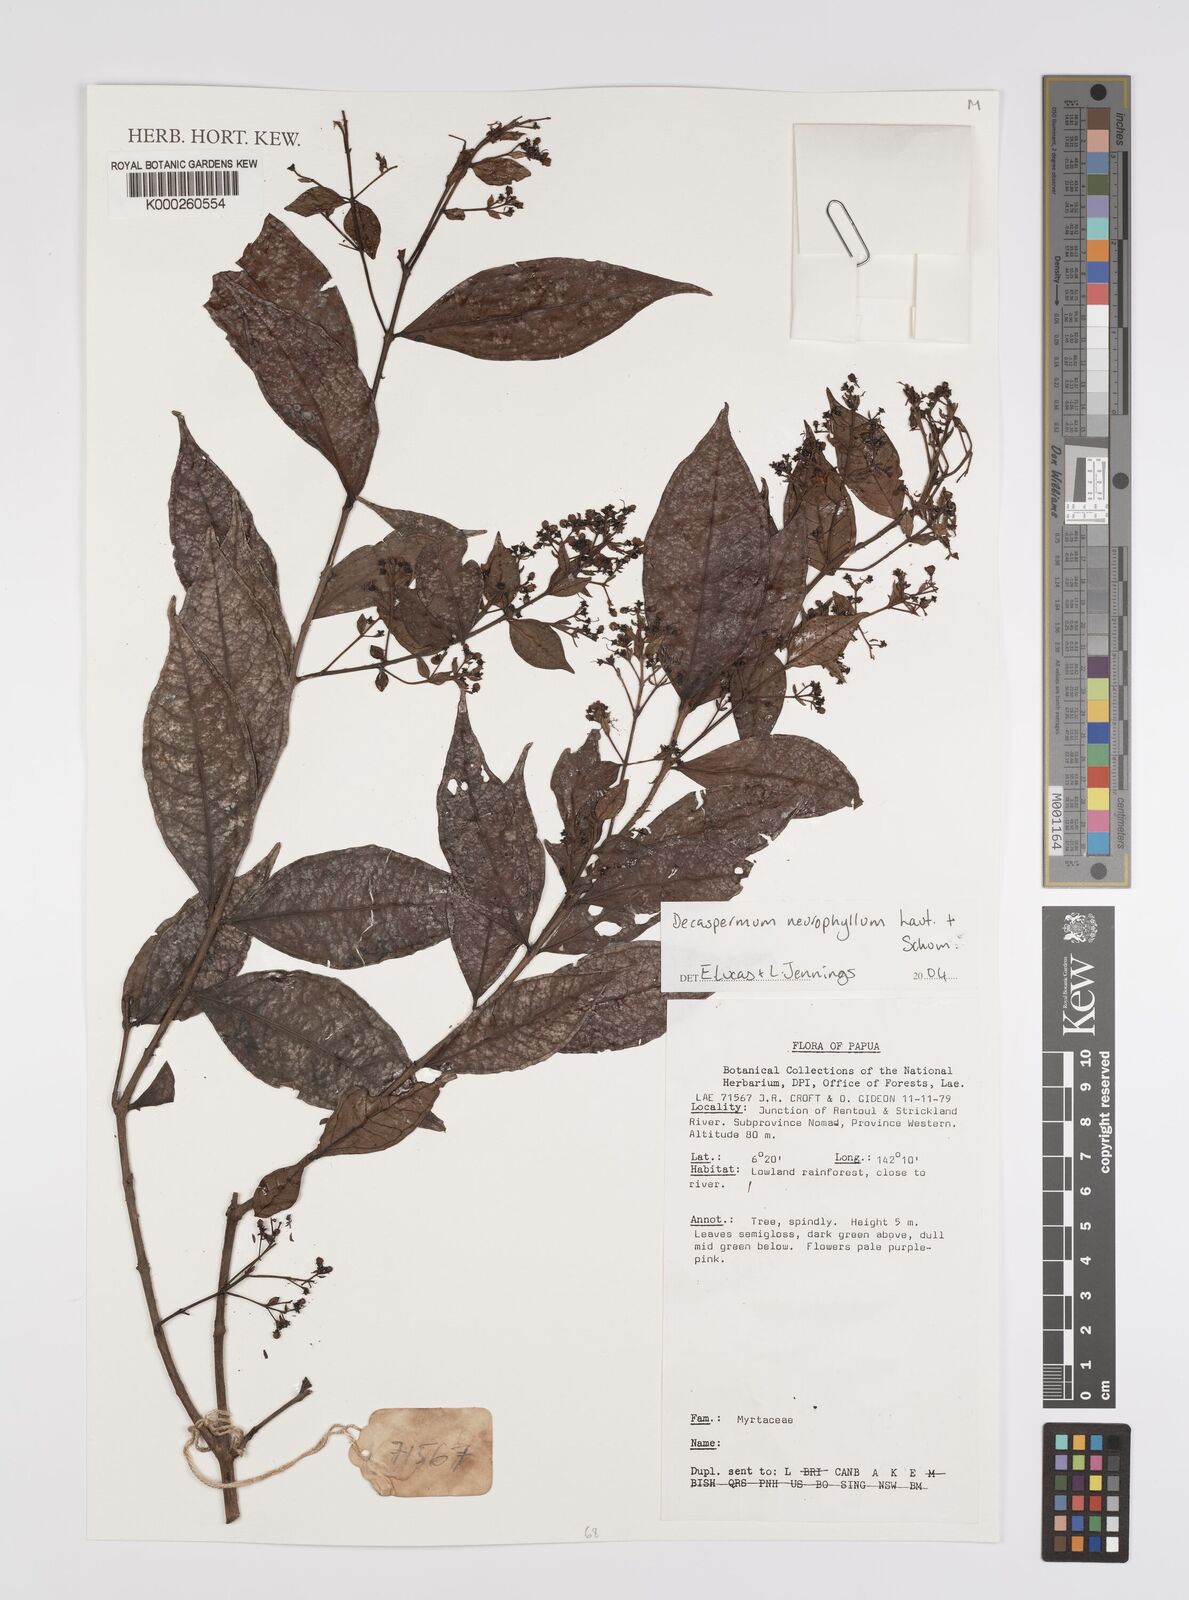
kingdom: Plantae
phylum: Tracheophyta
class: Magnoliopsida
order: Myrtales
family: Myrtaceae
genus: Decaspermum
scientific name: Decaspermum neurophyllum
